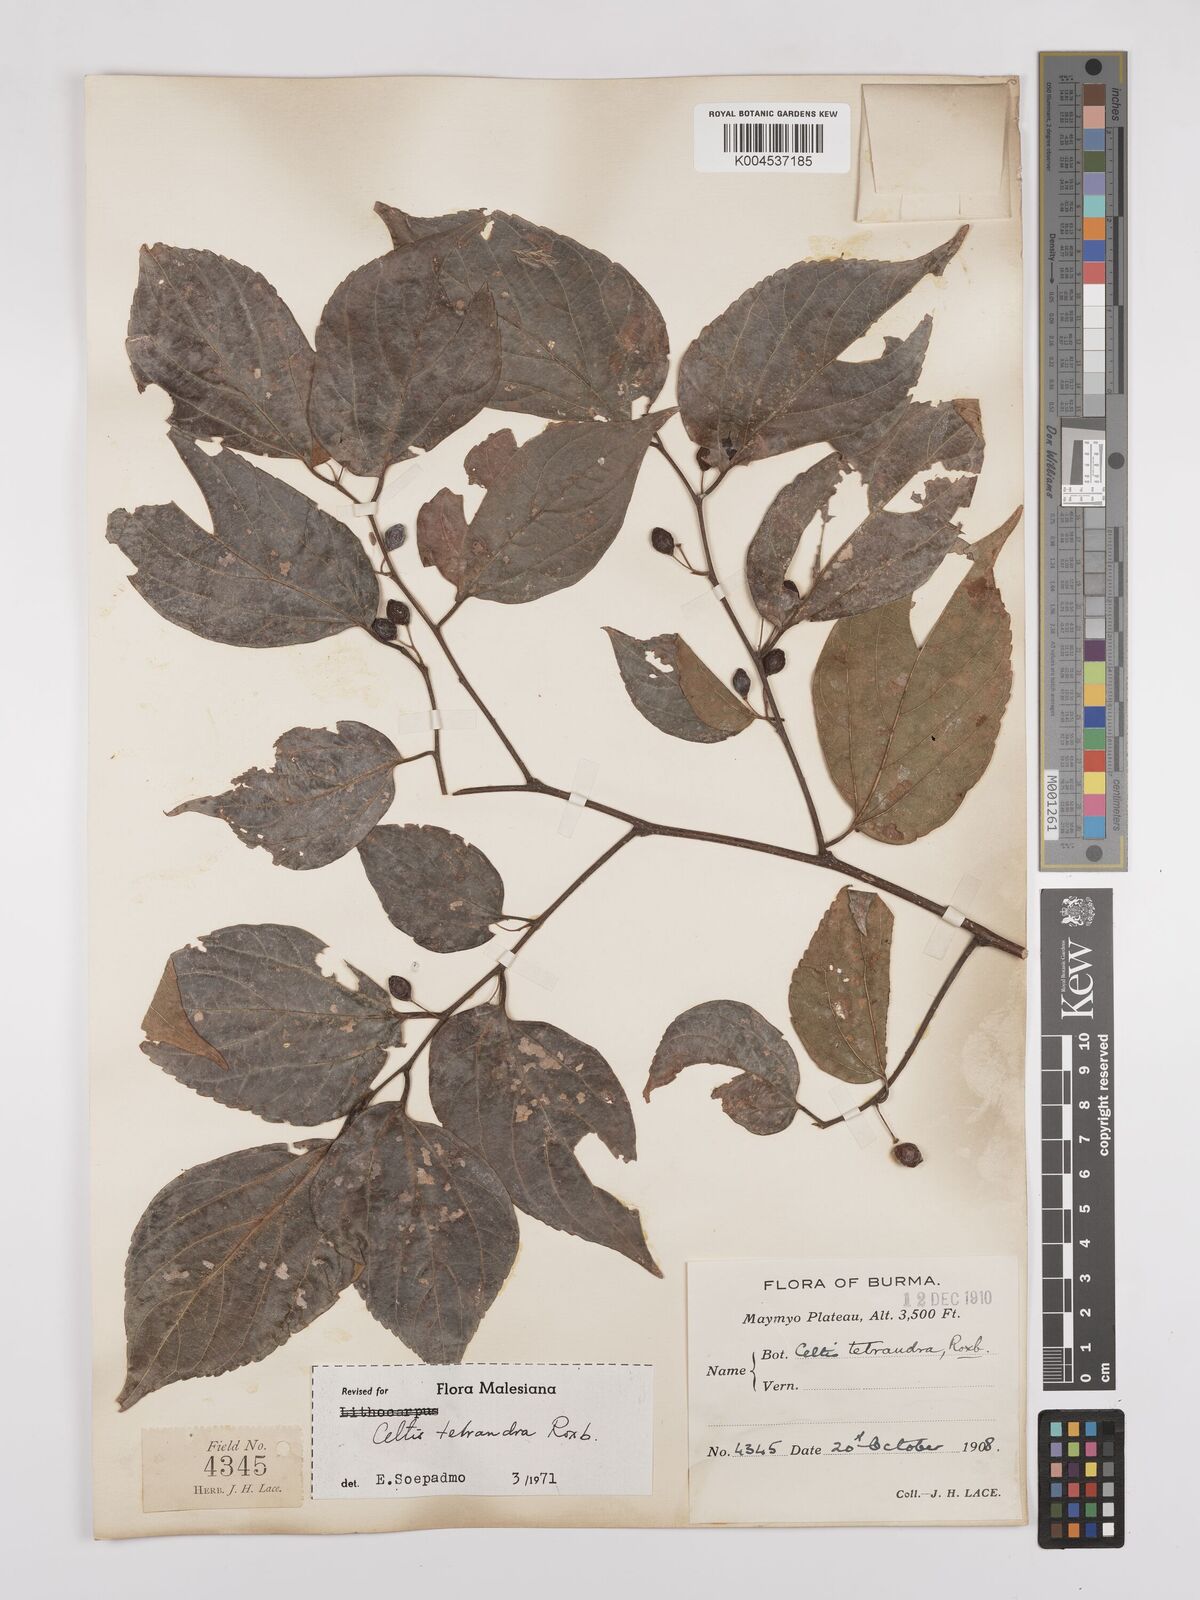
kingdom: Plantae
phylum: Tracheophyta
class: Magnoliopsida
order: Rosales
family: Cannabaceae
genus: Celtis
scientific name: Celtis tetrandra
